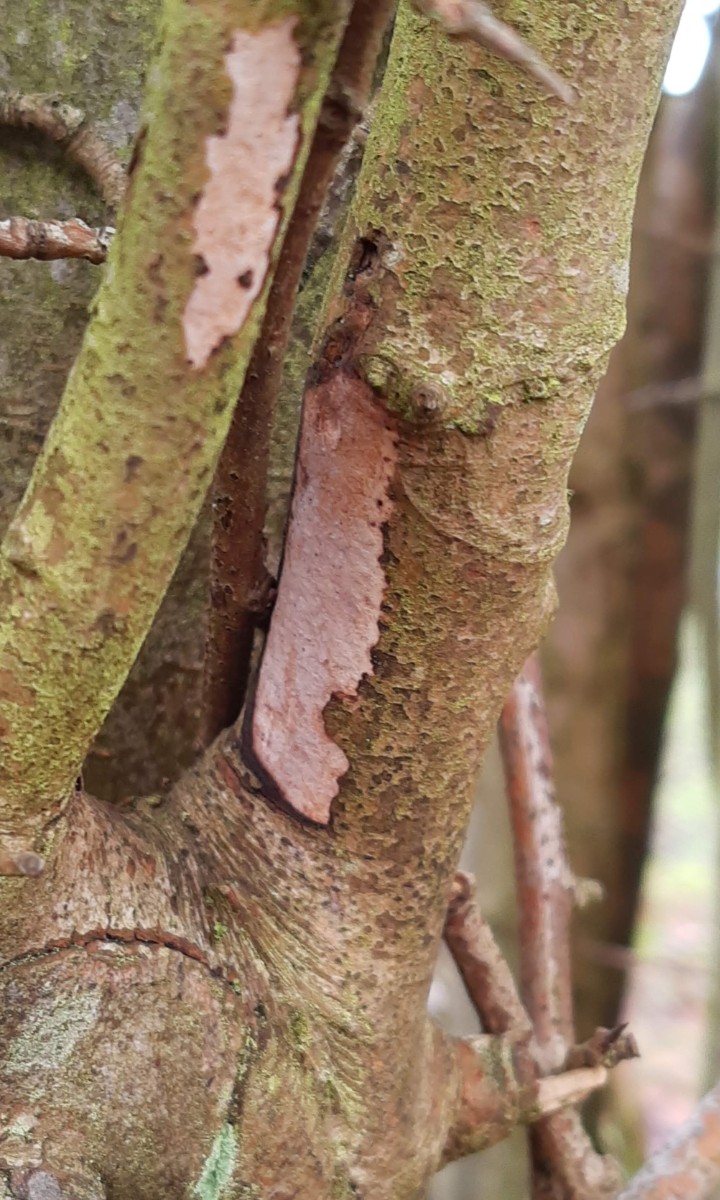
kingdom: Fungi
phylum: Basidiomycota
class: Agaricomycetes
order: Corticiales
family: Vuilleminiaceae
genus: Vuilleminia
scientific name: Vuilleminia cystidiata
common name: tjørne-barksprænger
